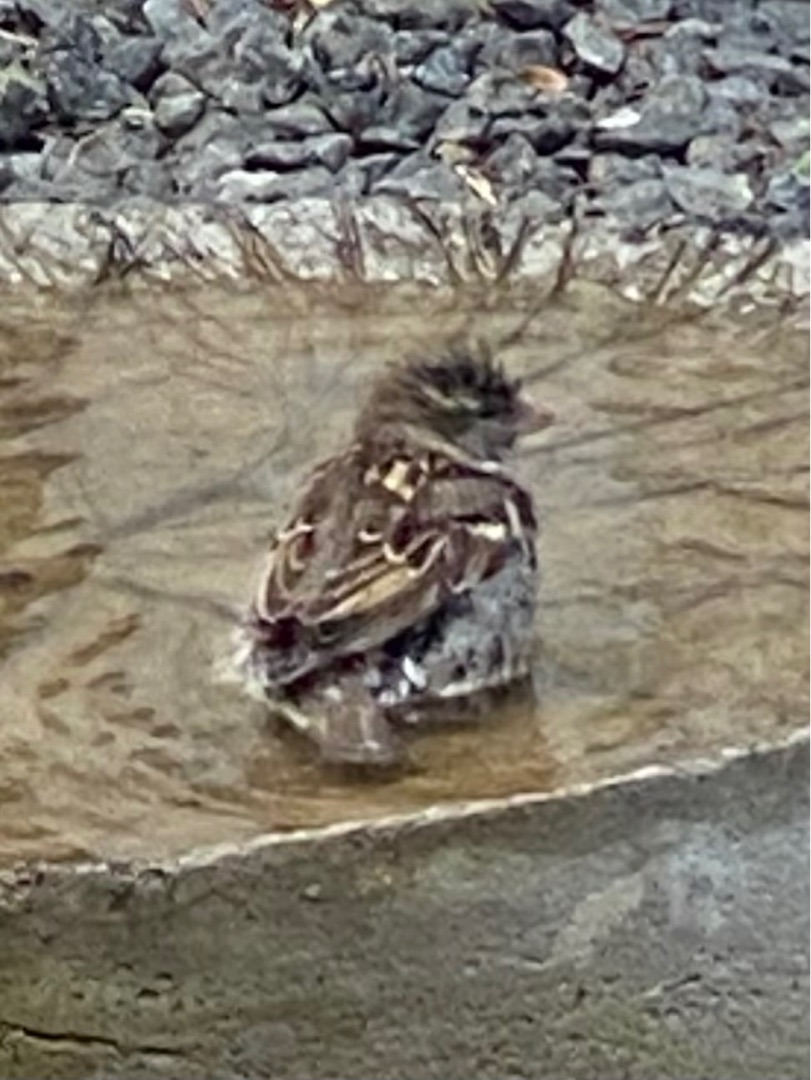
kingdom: Animalia
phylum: Chordata
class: Aves
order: Passeriformes
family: Passeridae
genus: Passer
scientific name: Passer domesticus
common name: Gråspurv
